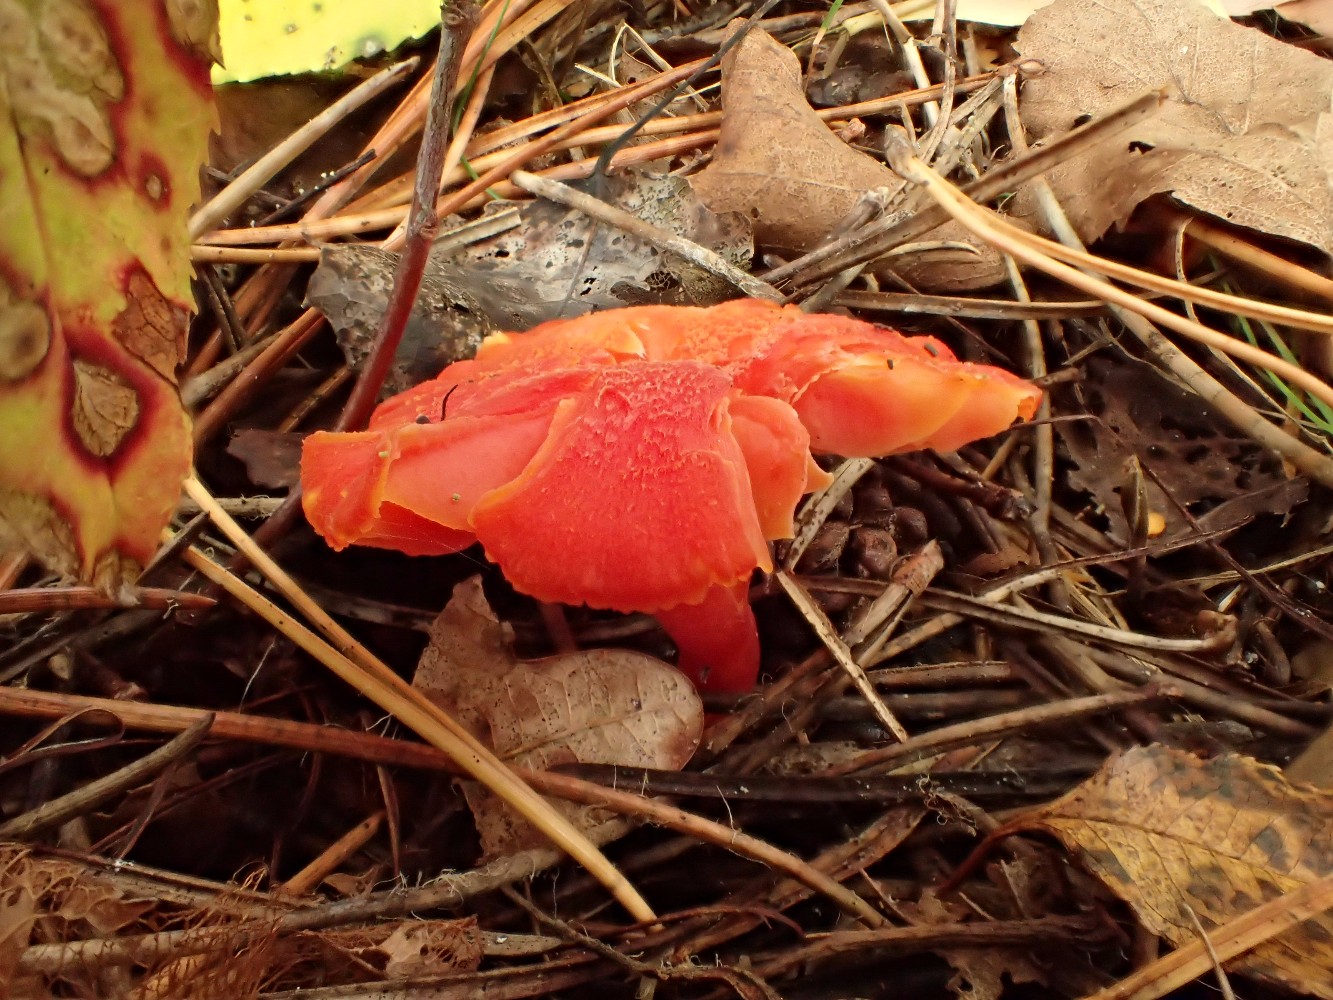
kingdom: Fungi
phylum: Basidiomycota
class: Agaricomycetes
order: Agaricales
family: Hygrophoraceae
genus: Hygrocybe
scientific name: Hygrocybe miniata
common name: mønje-vokshat
